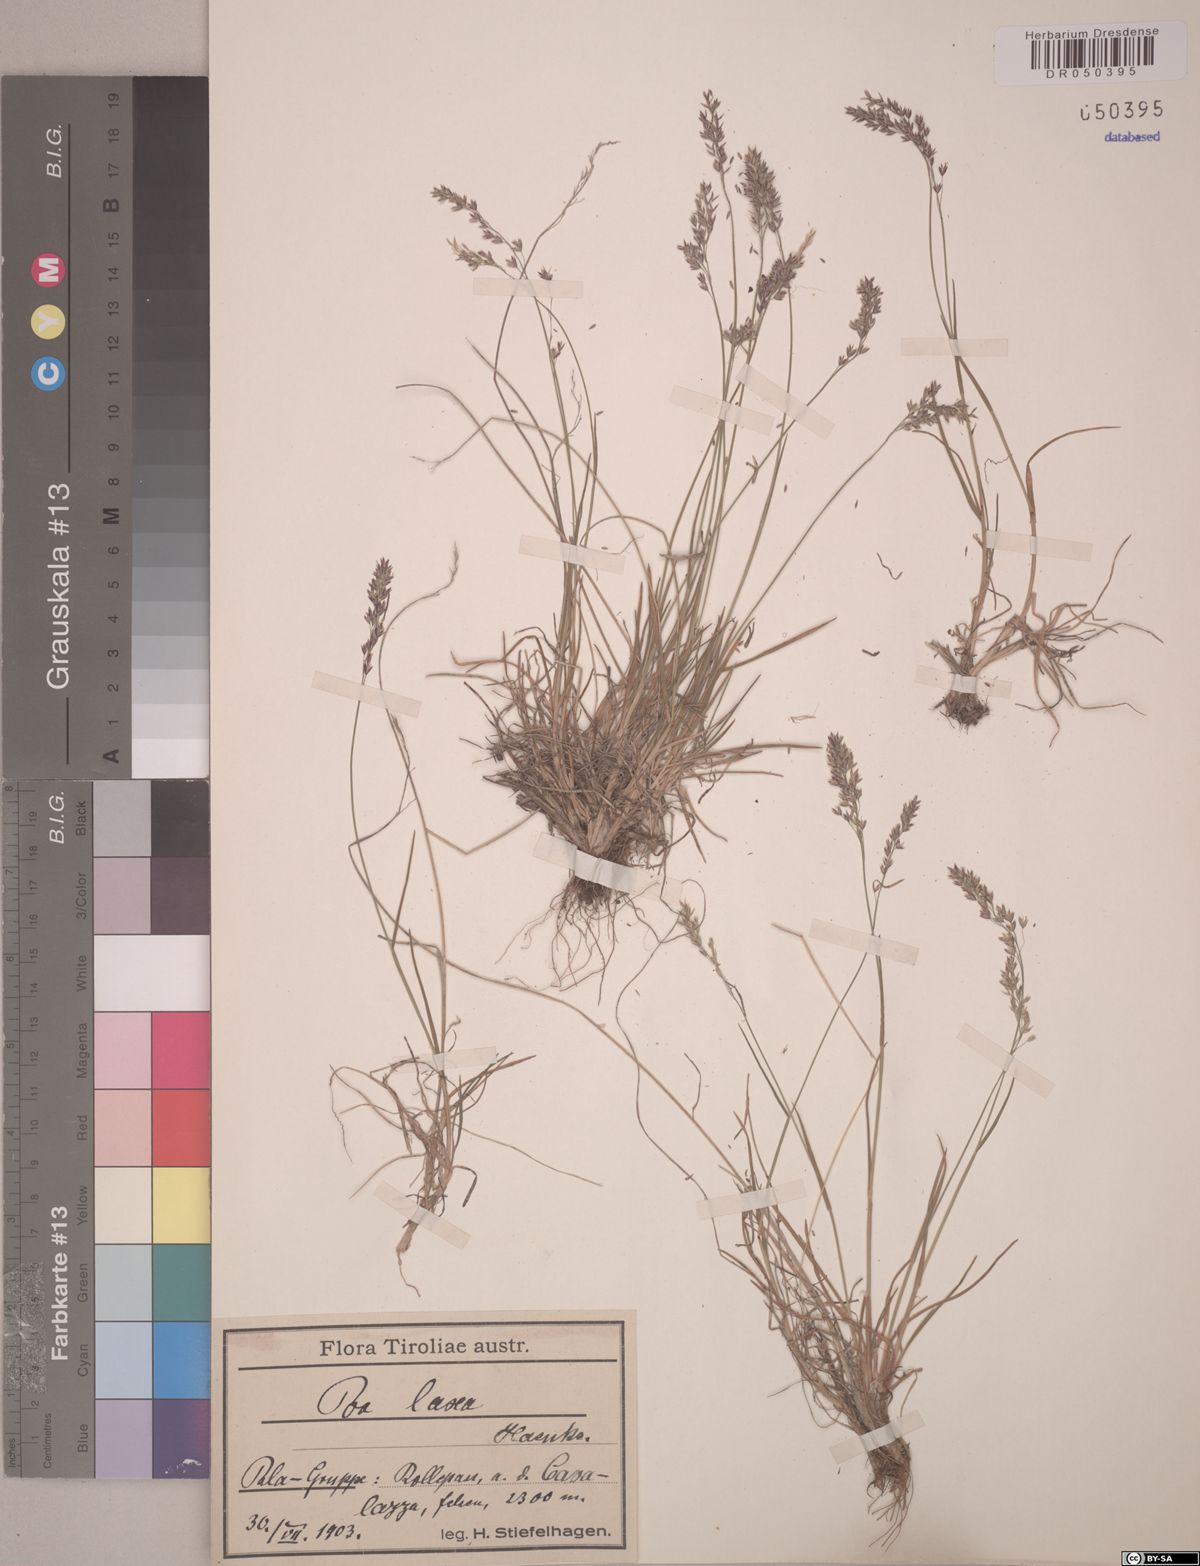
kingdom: Plantae
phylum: Tracheophyta
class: Liliopsida
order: Poales
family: Poaceae
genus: Poa
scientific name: Poa laxa
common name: Lax bluegrass
